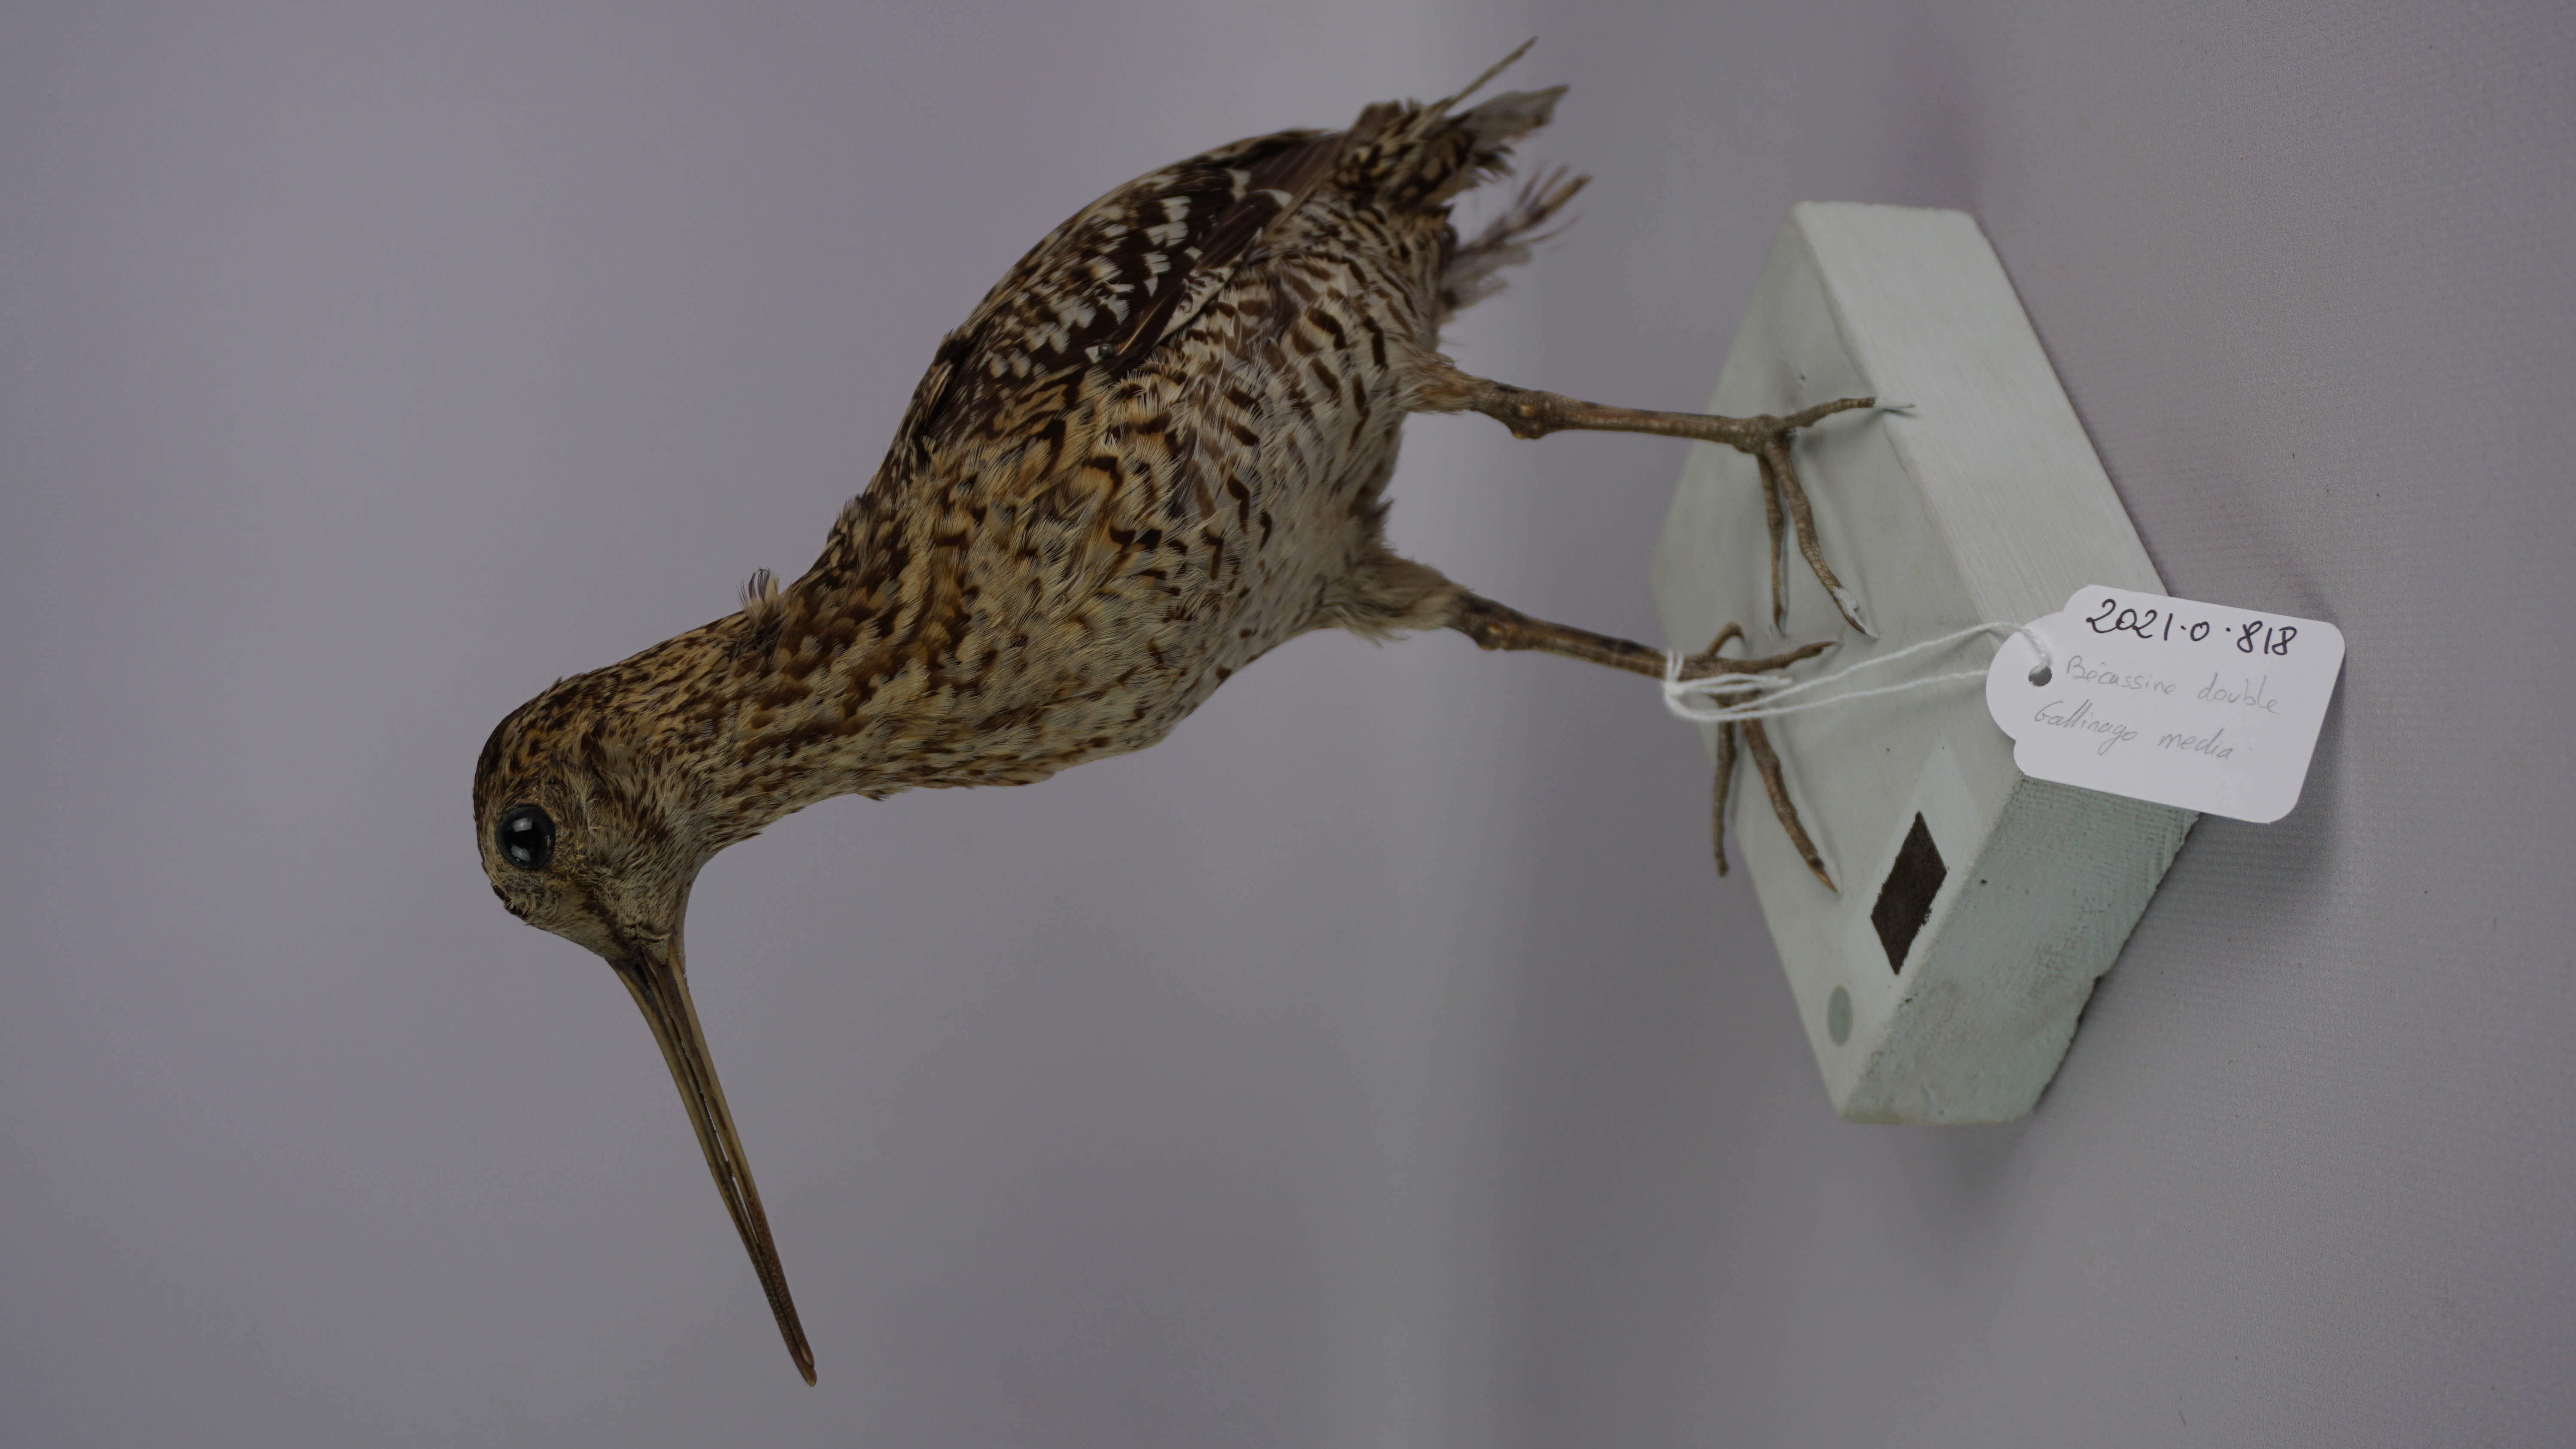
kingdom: Animalia
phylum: Chordata
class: Aves
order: Charadriiformes
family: Scolopacidae
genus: Gallinago
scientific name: Gallinago media
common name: Great snipe
